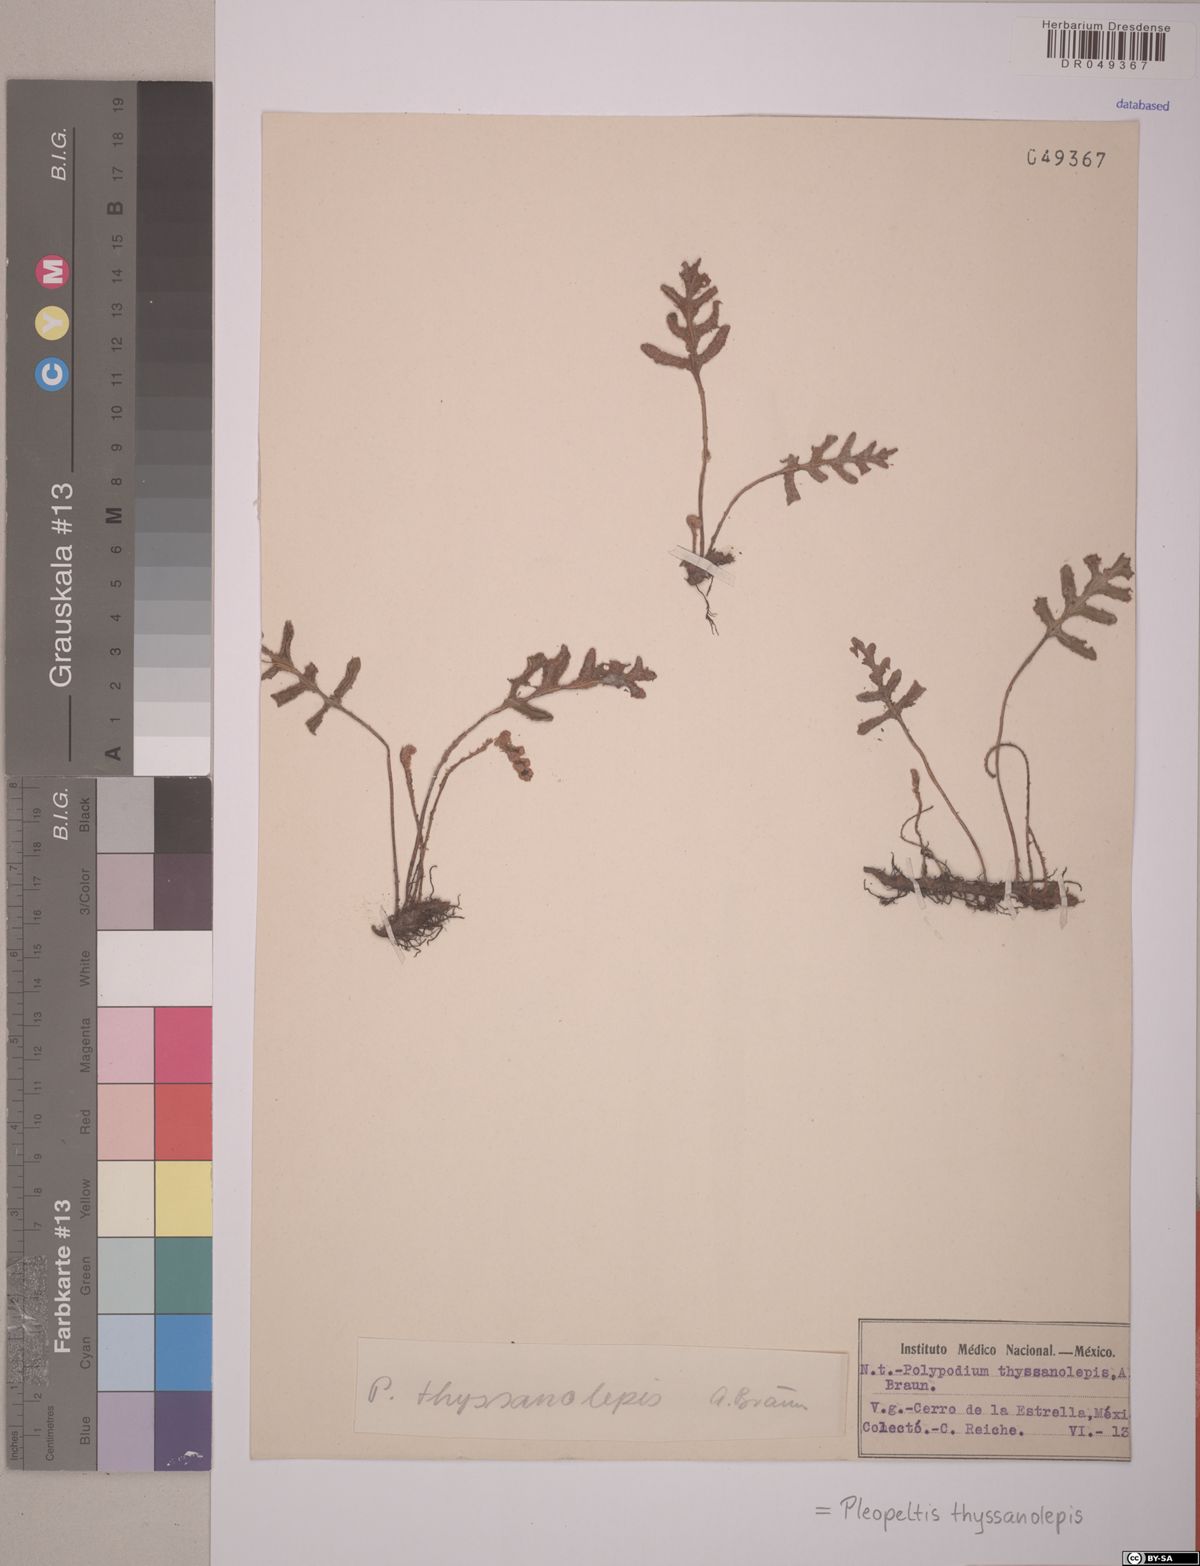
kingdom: Plantae
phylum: Tracheophyta
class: Polypodiopsida
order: Polypodiales
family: Polypodiaceae
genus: Pleopeltis
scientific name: Pleopeltis thyssanolepis
